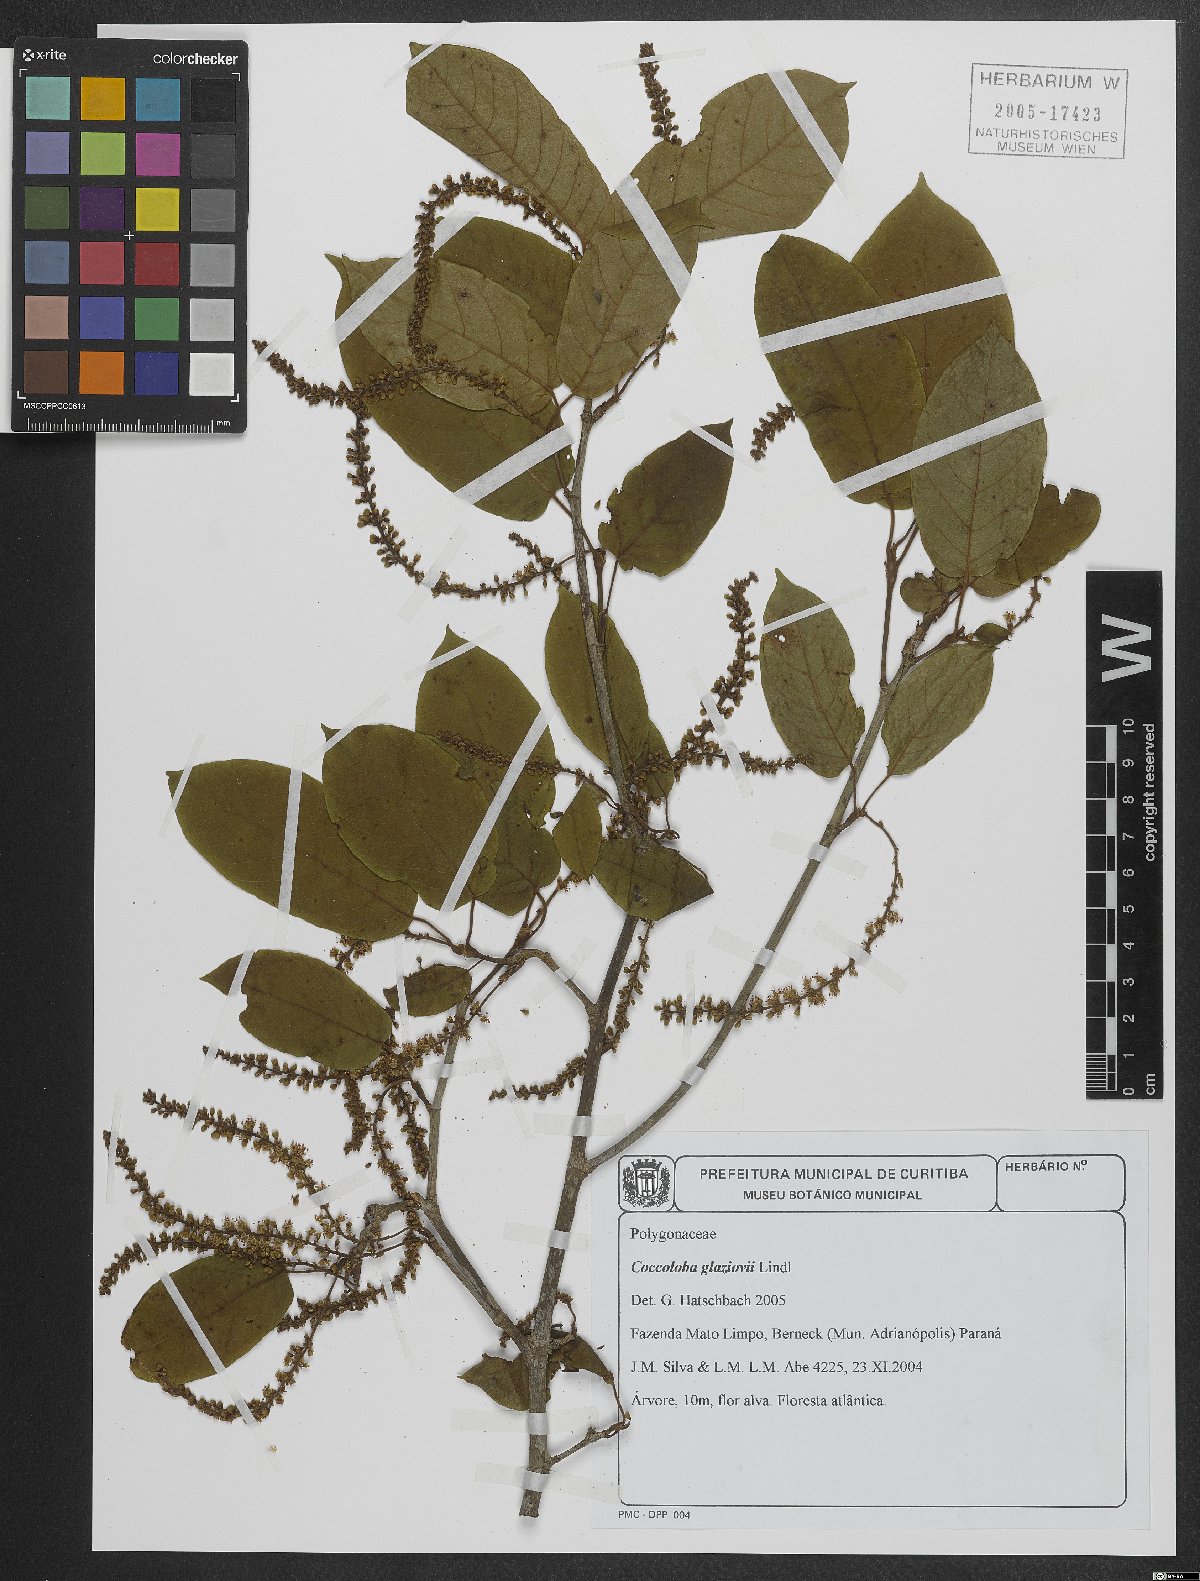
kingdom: Plantae
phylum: Tracheophyta
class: Magnoliopsida
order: Caryophyllales
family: Polygonaceae
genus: Coccoloba
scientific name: Coccoloba glaziovii
